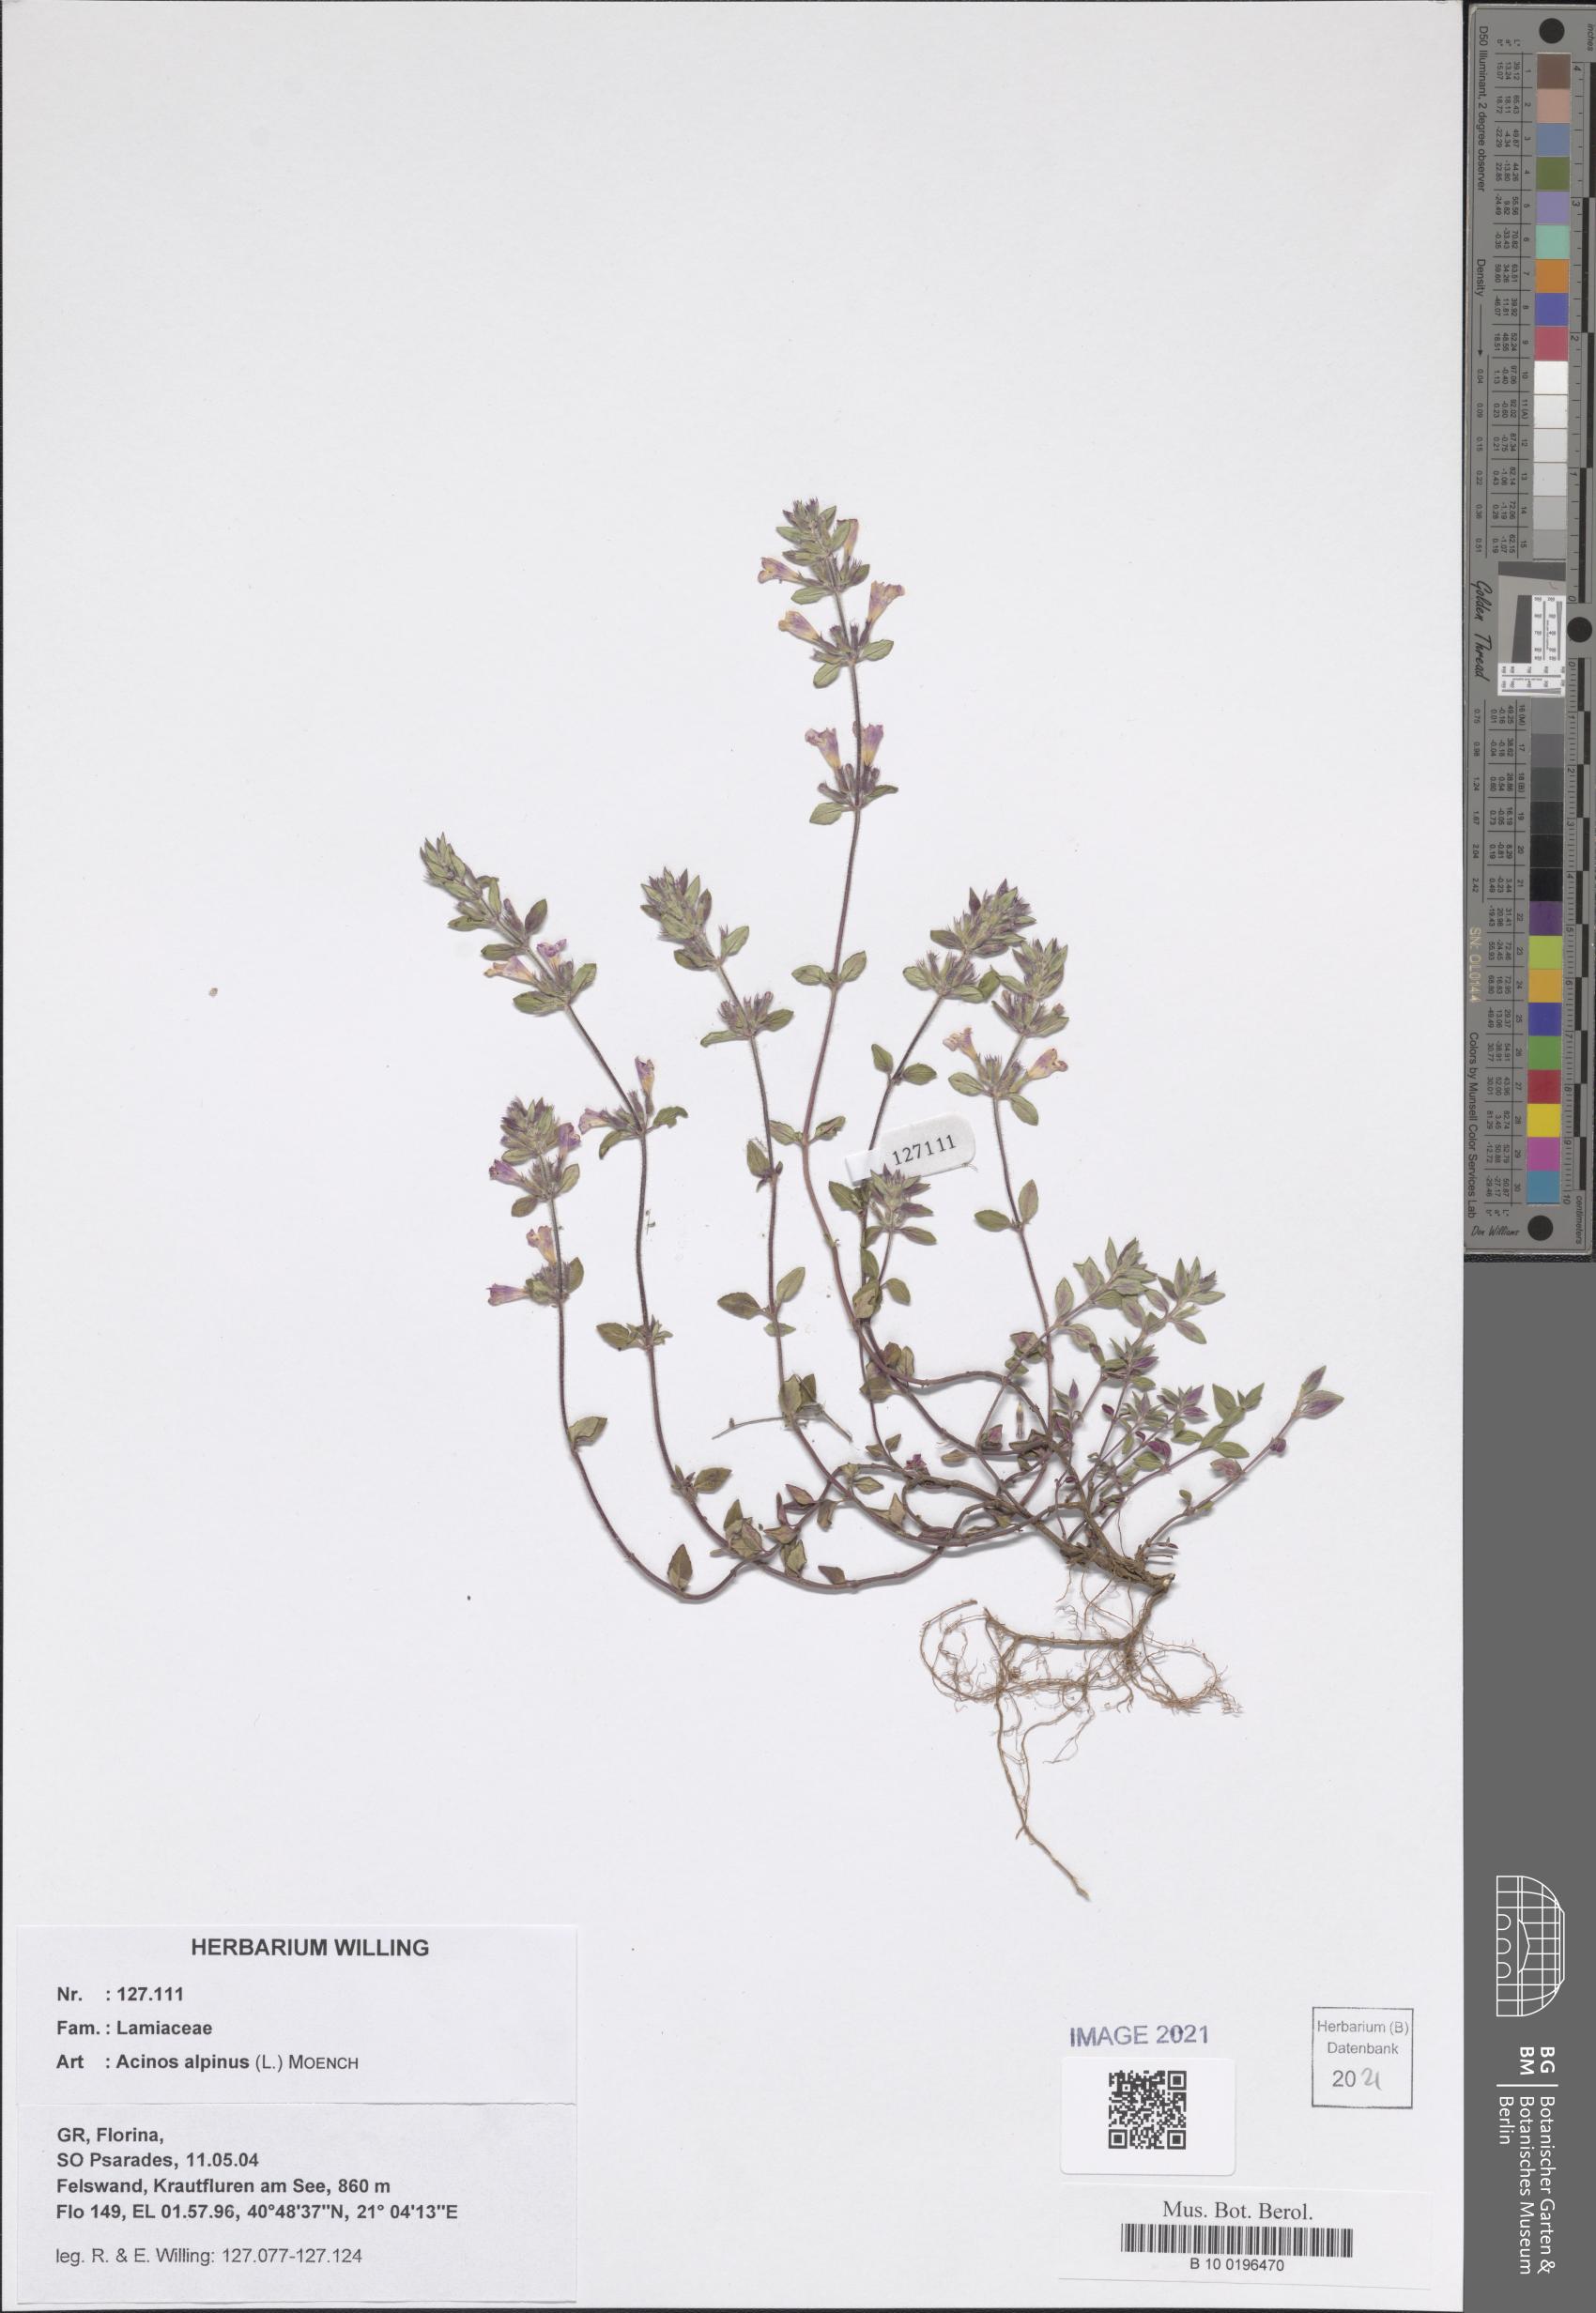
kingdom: Plantae
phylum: Tracheophyta
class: Magnoliopsida
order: Lamiales
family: Lamiaceae
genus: Clinopodium
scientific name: Clinopodium alpinum
